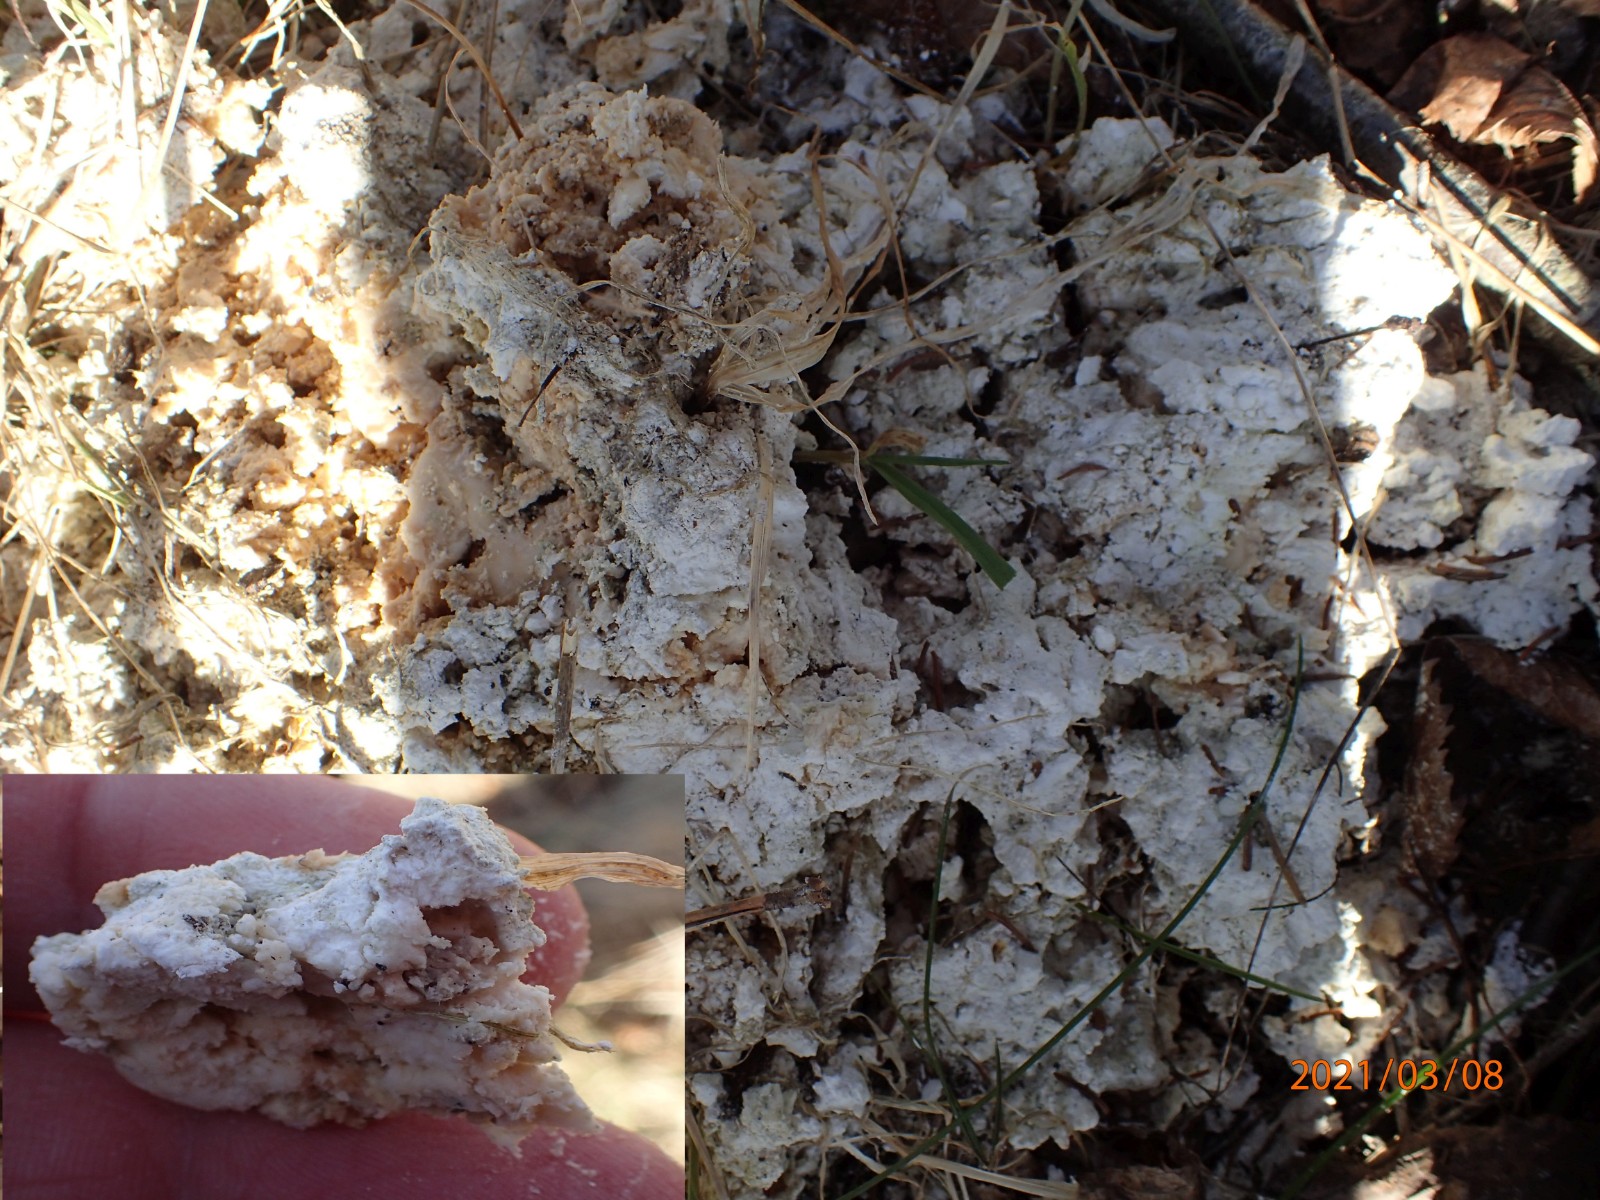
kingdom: Fungi
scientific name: Fungi
